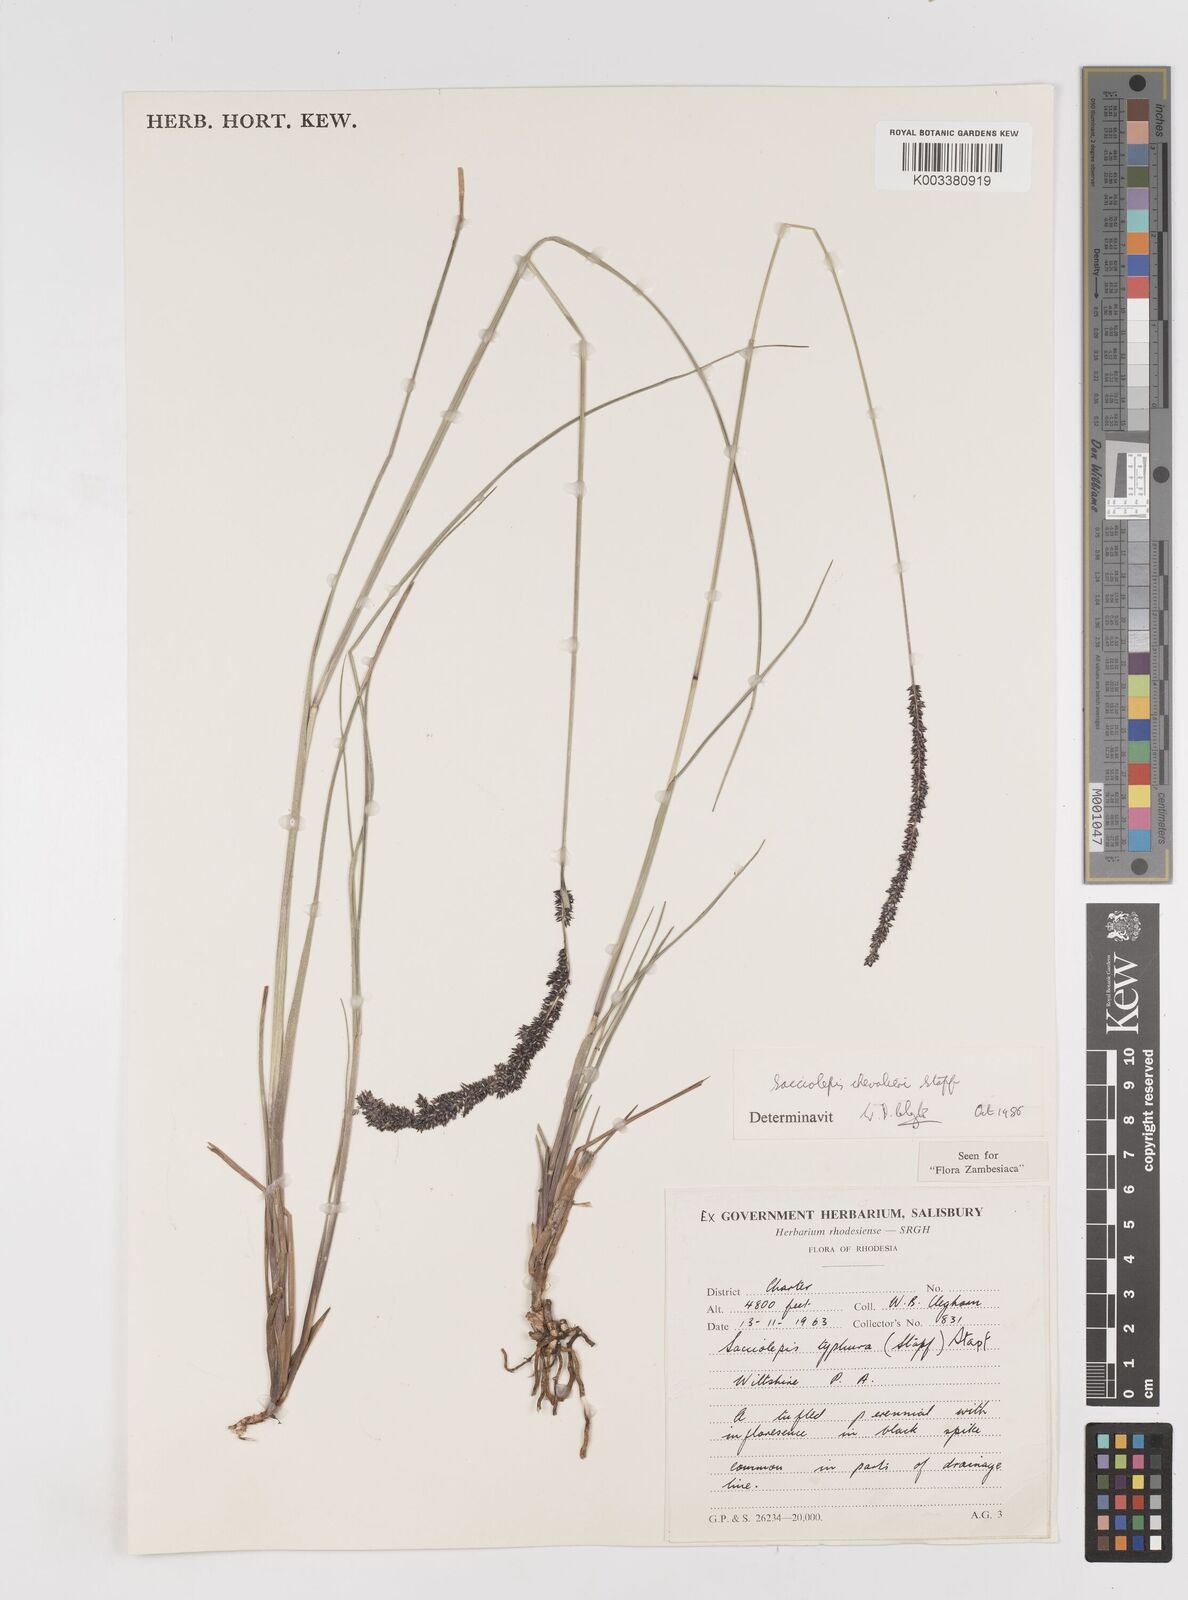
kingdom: Plantae
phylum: Tracheophyta
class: Liliopsida
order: Poales
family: Poaceae
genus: Sacciolepis
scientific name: Sacciolepis chevalieri
